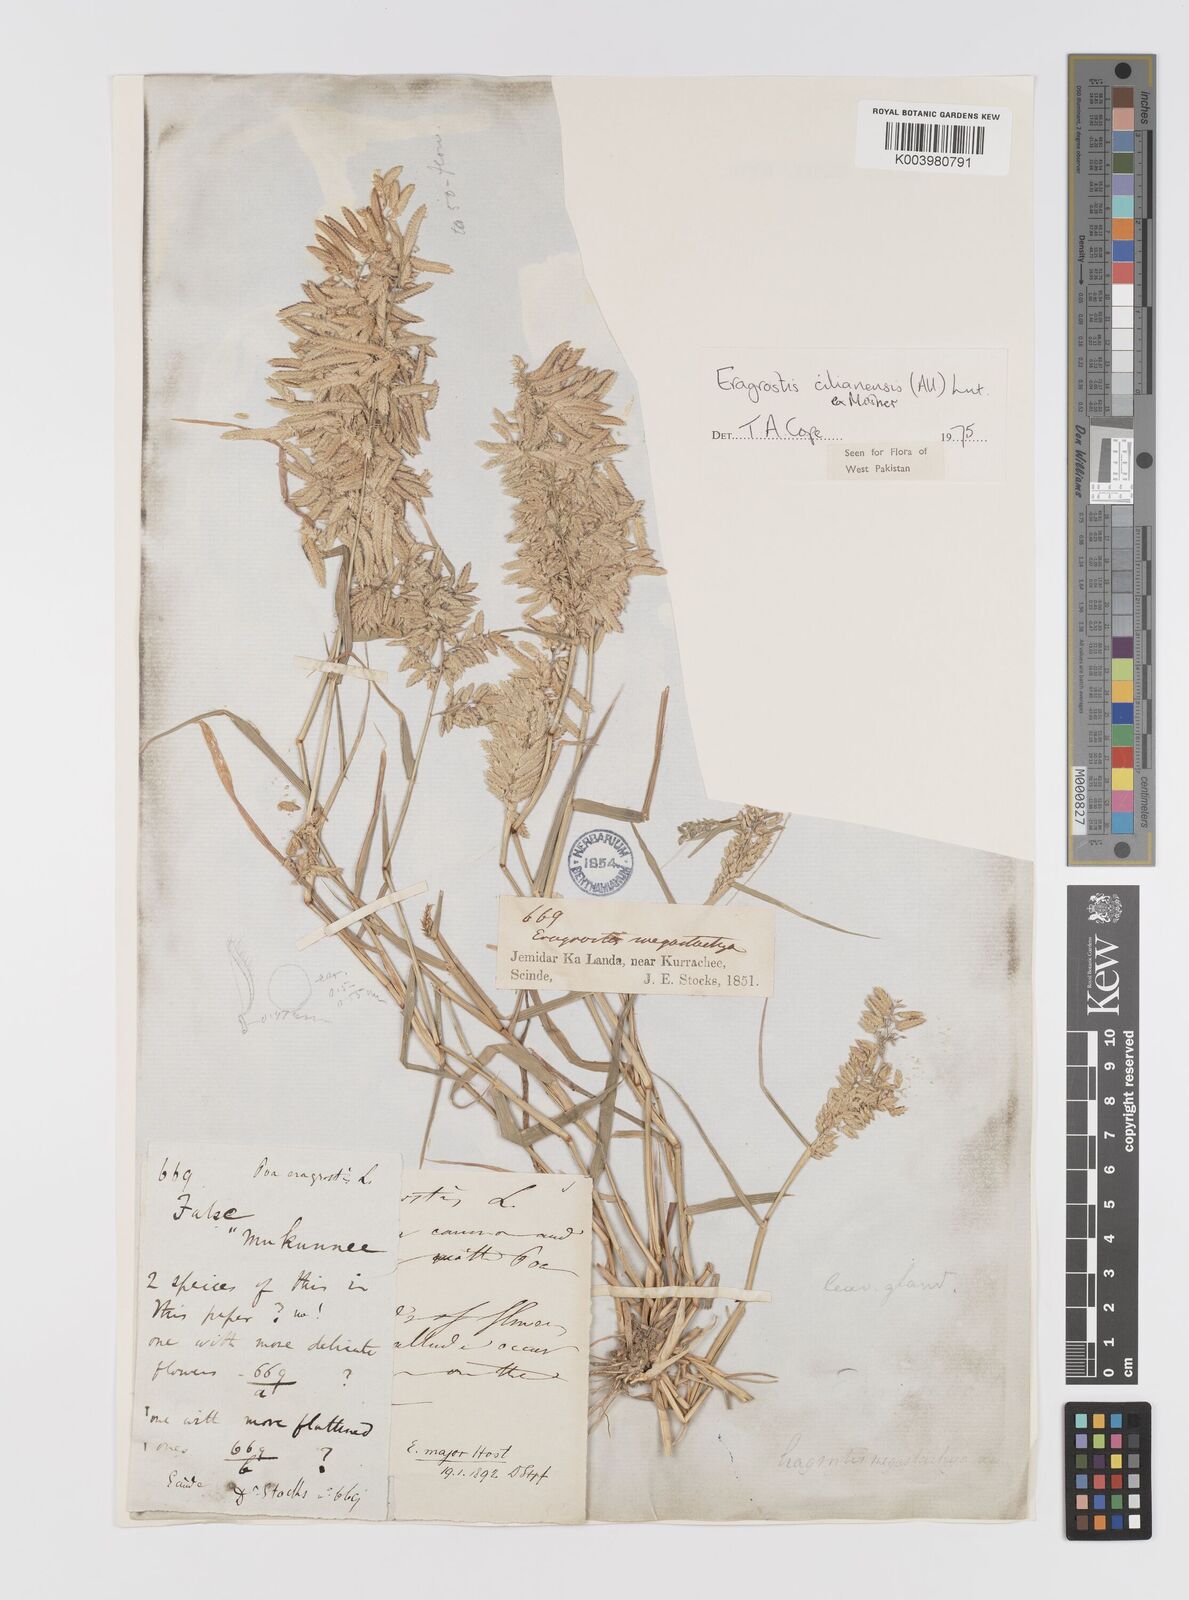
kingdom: Plantae
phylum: Tracheophyta
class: Liliopsida
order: Poales
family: Poaceae
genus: Eragrostis
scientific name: Eragrostis cilianensis
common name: Stinkgrass
